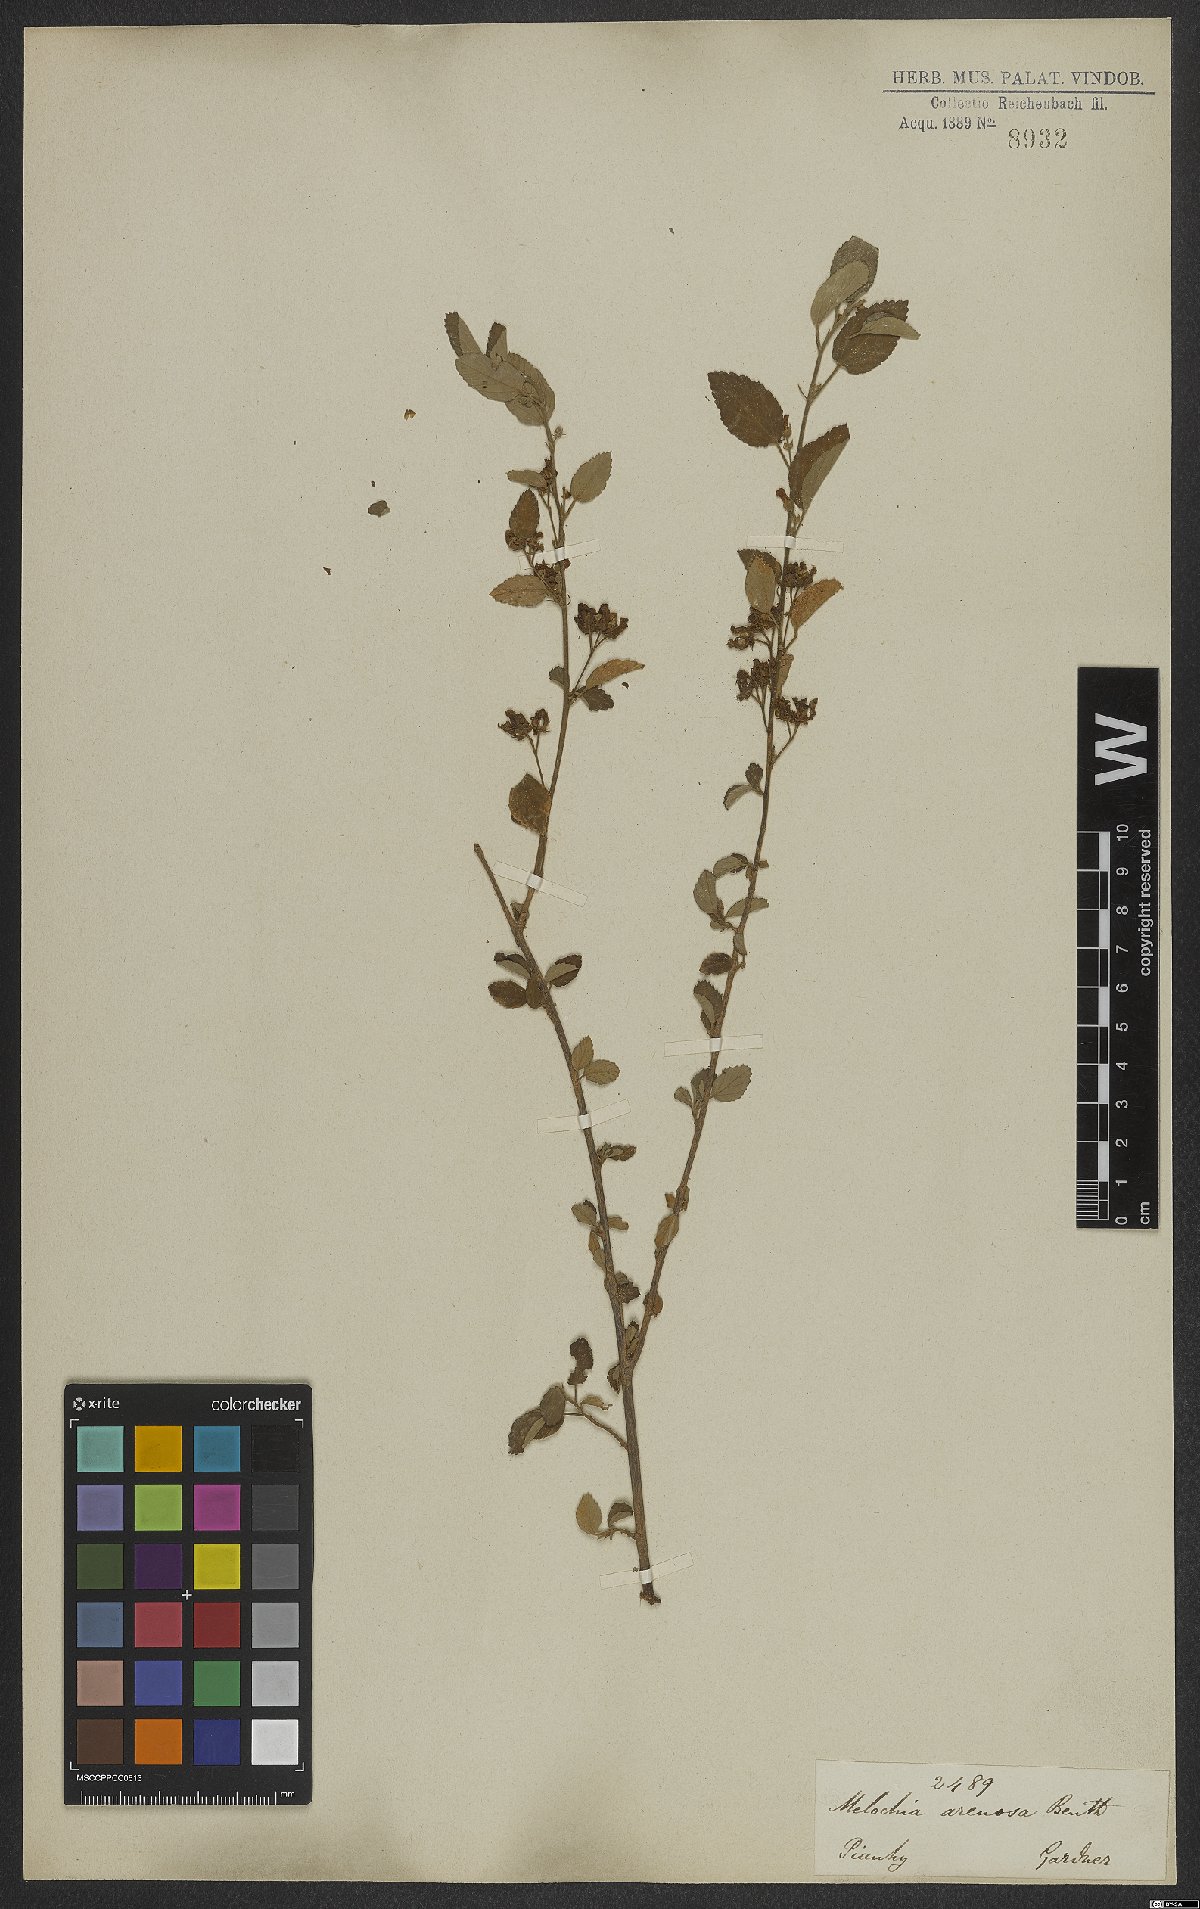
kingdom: Plantae
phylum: Tracheophyta
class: Magnoliopsida
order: Malvales
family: Malvaceae
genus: Melochia
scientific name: Melochia arenosa
